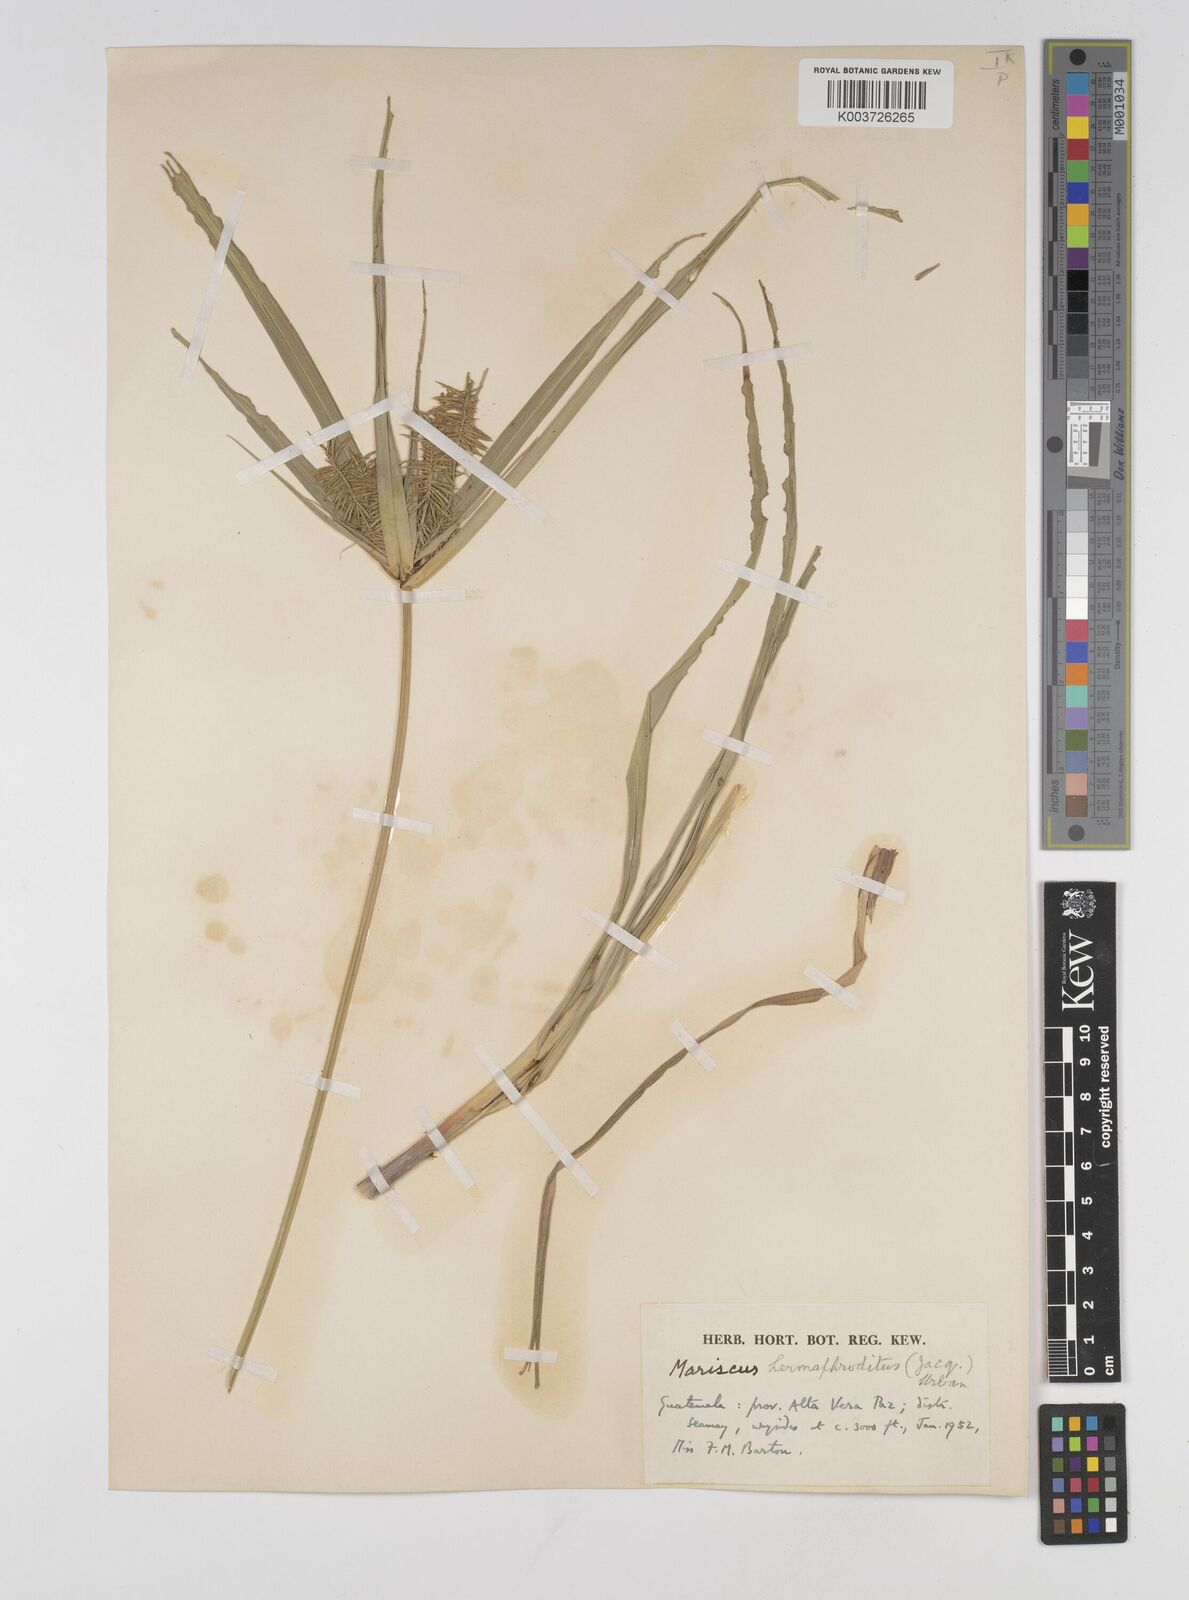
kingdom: Plantae
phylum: Tracheophyta
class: Liliopsida
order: Poales
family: Cyperaceae
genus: Cyperus
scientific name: Cyperus hermaphroditus
